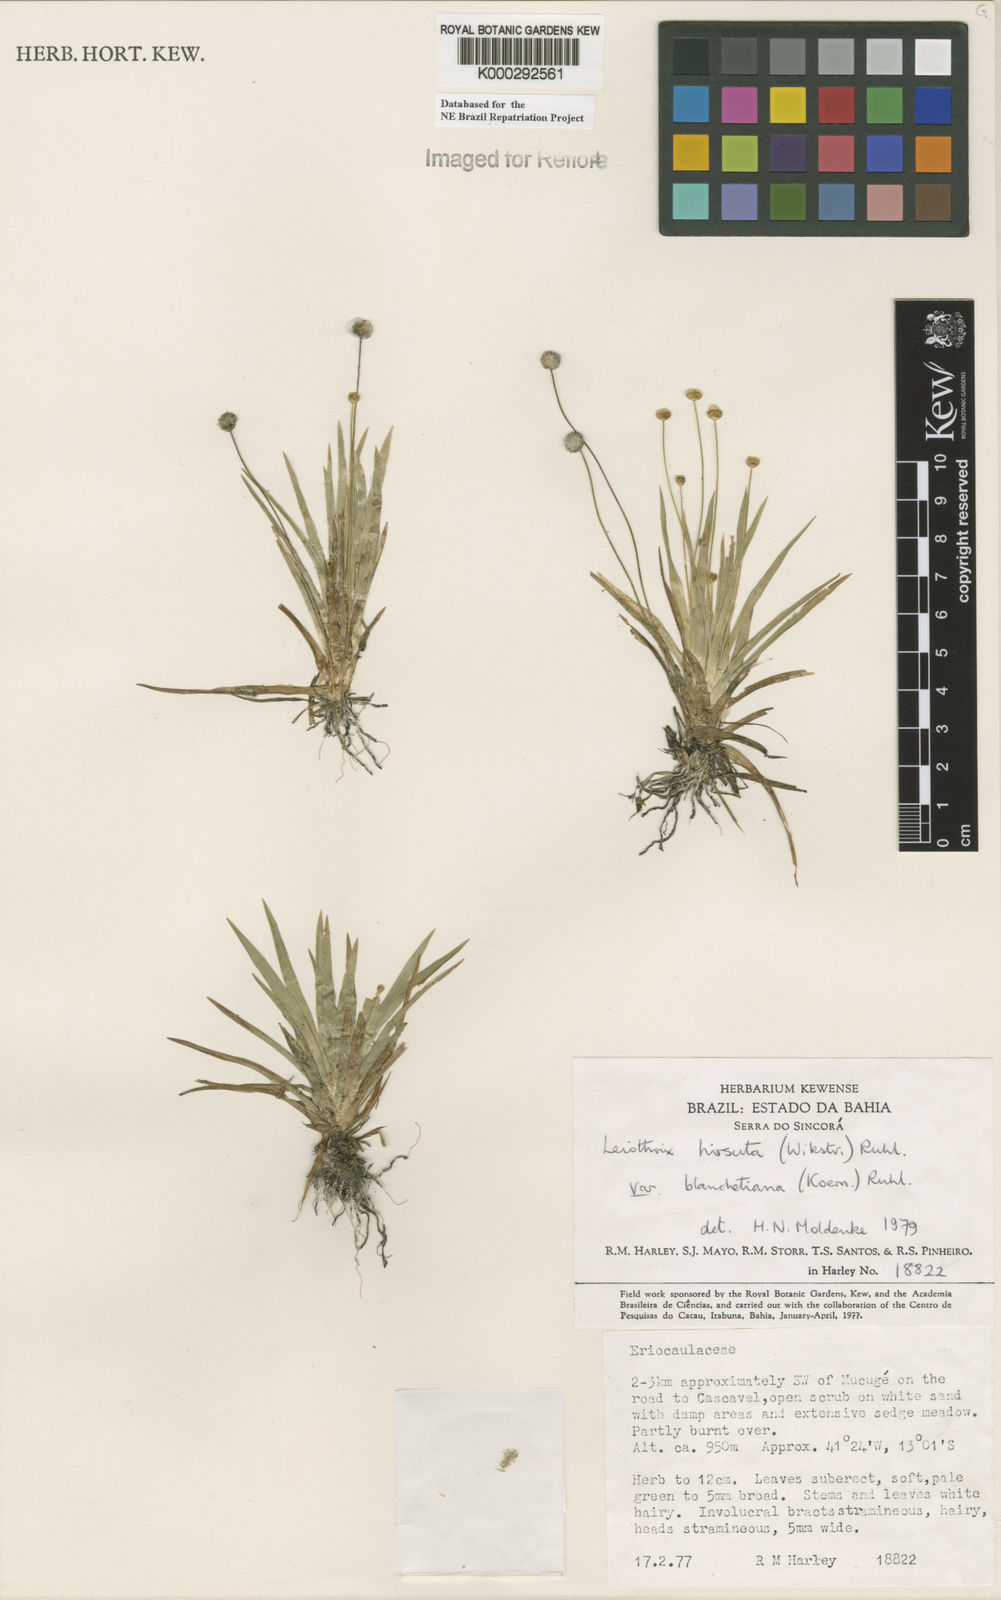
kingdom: Plantae
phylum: Tracheophyta
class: Liliopsida
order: Poales
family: Eriocaulaceae
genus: Leiothrix
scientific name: Leiothrix hirsuta
